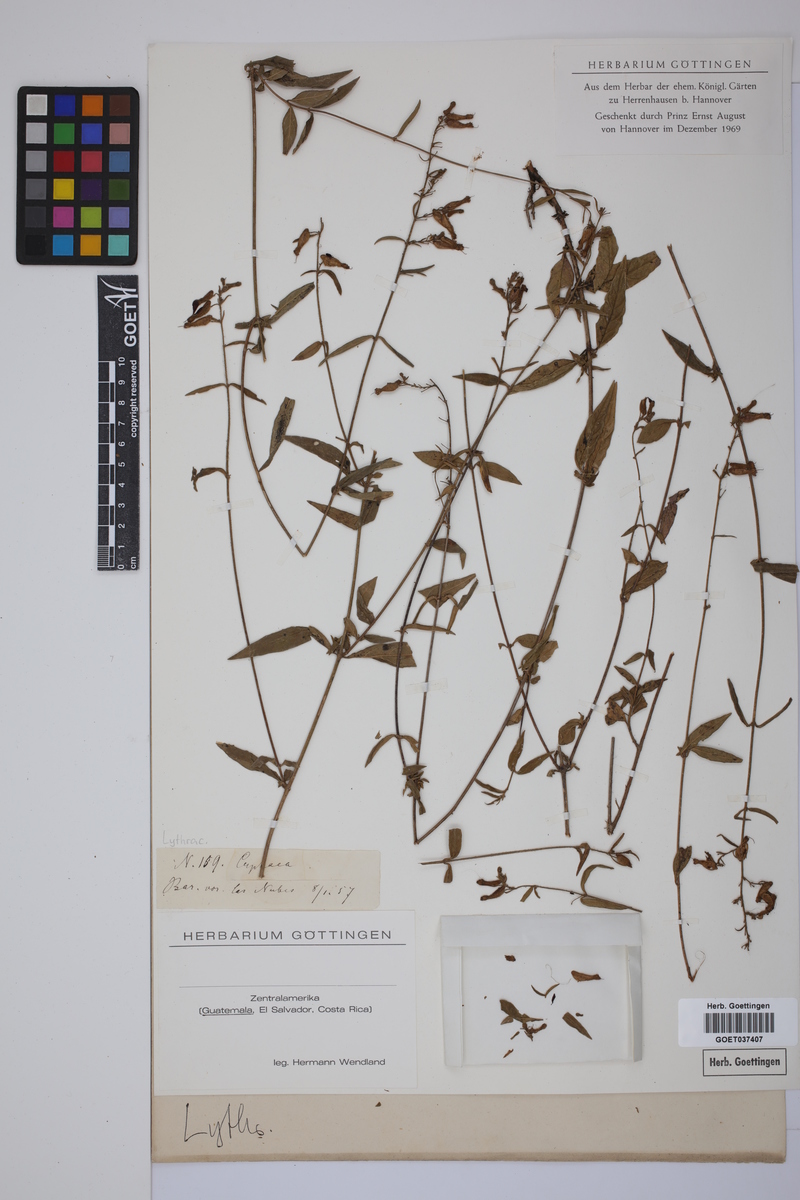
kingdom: Plantae
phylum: Tracheophyta
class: Magnoliopsida
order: Myrtales
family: Lythraceae
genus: Cuphea
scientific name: Cuphea
